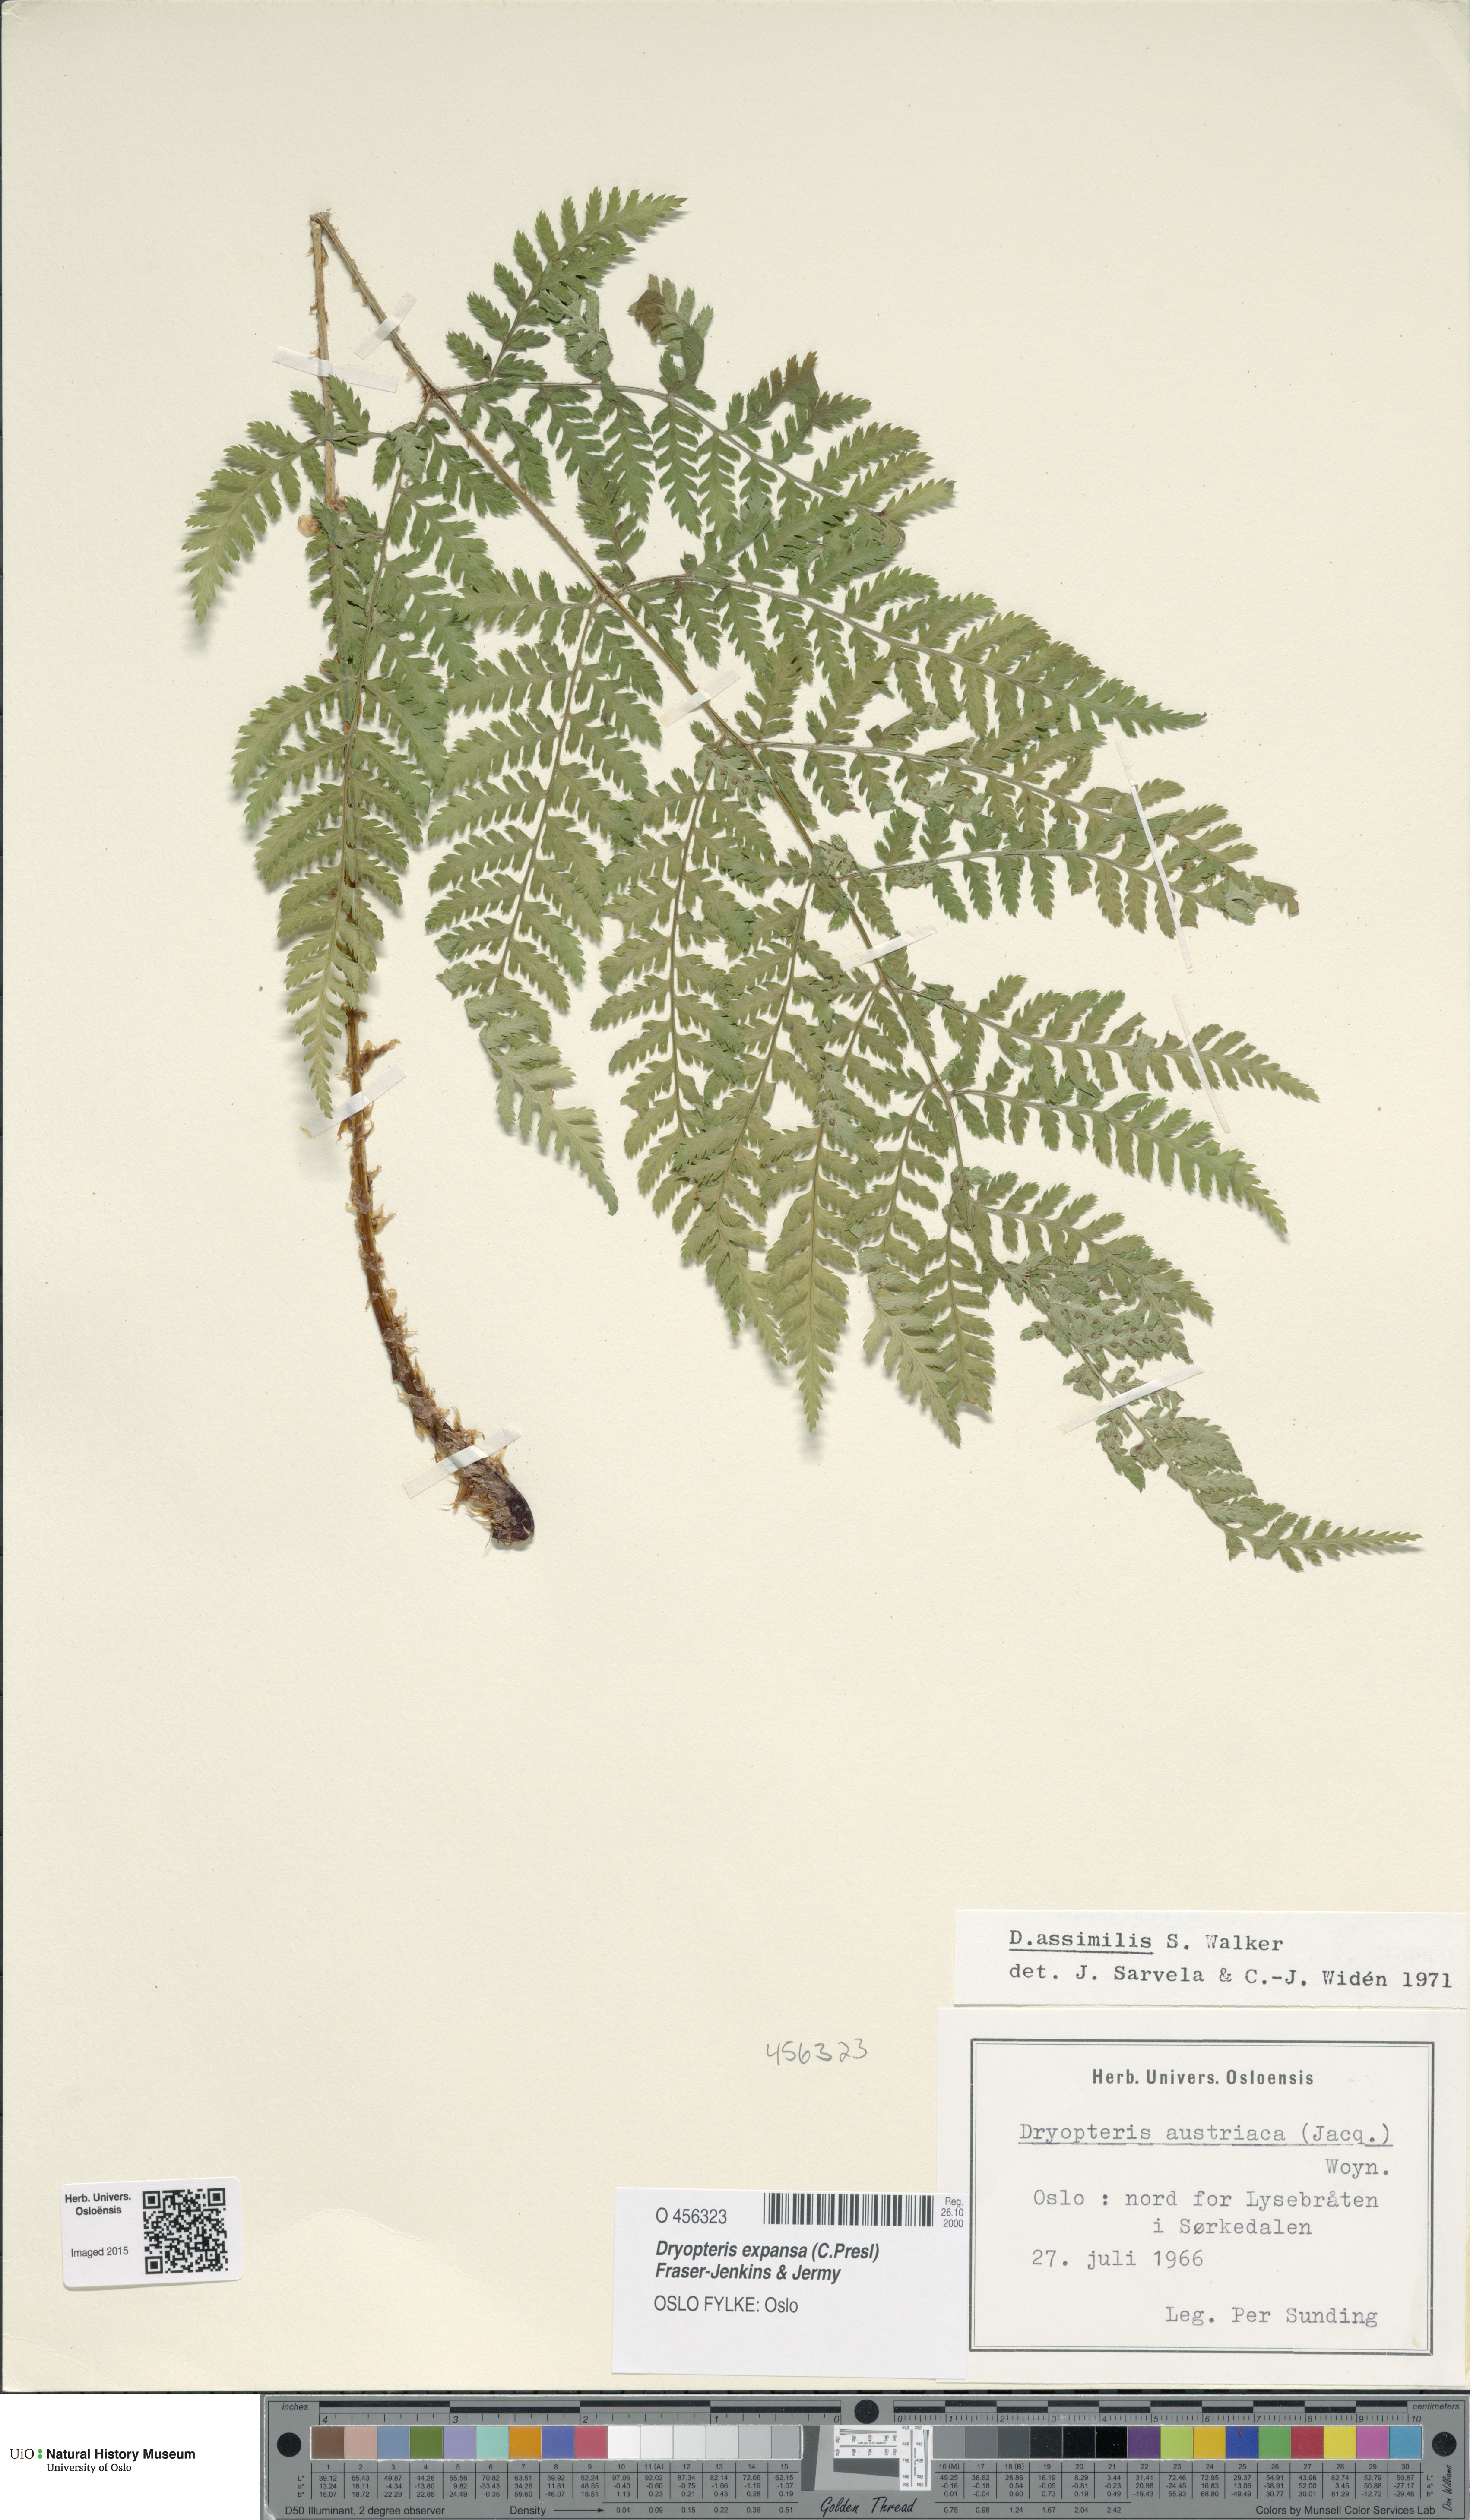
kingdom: Plantae
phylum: Tracheophyta
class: Polypodiopsida
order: Polypodiales
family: Dryopteridaceae
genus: Dryopteris
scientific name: Dryopteris expansa
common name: Northern buckler fern
